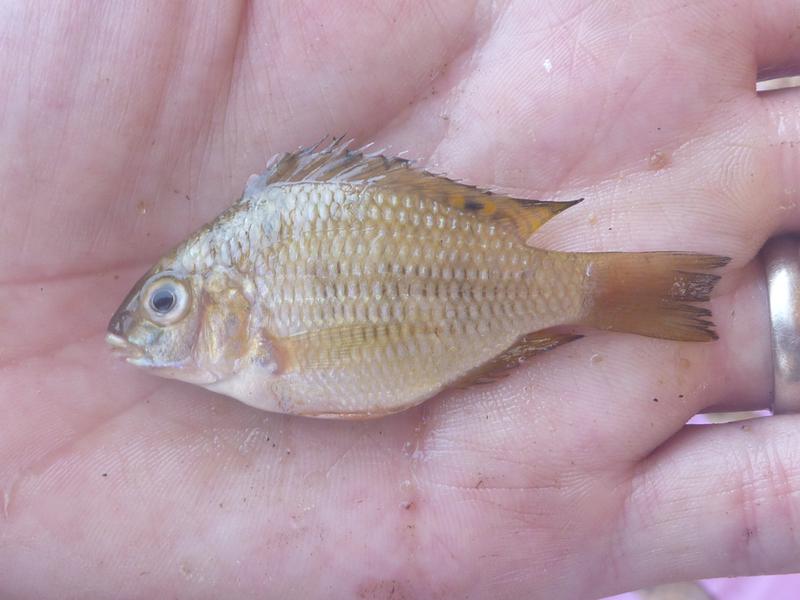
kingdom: Animalia
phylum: Chordata
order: Perciformes
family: Cichlidae
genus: Coptodon
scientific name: Coptodon rendalli
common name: Redbreast tilapia
